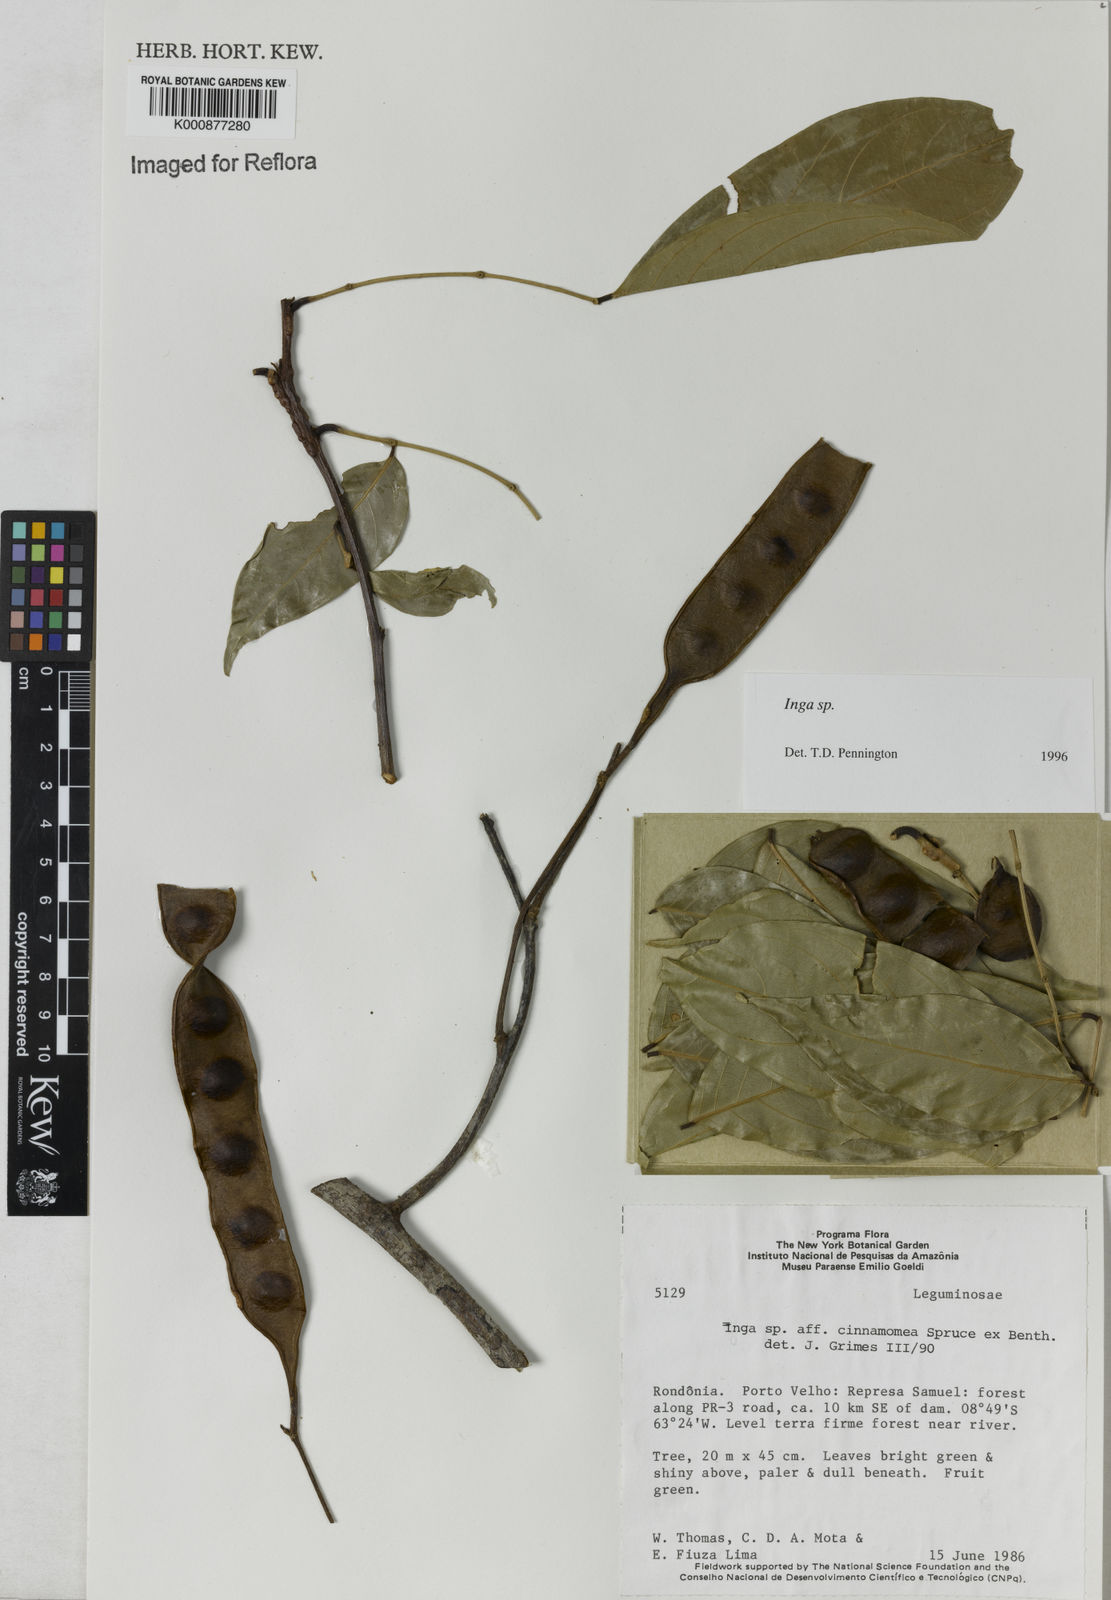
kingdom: Plantae
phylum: Tracheophyta
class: Magnoliopsida
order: Fabales
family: Fabaceae
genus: Inga
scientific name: Inga
